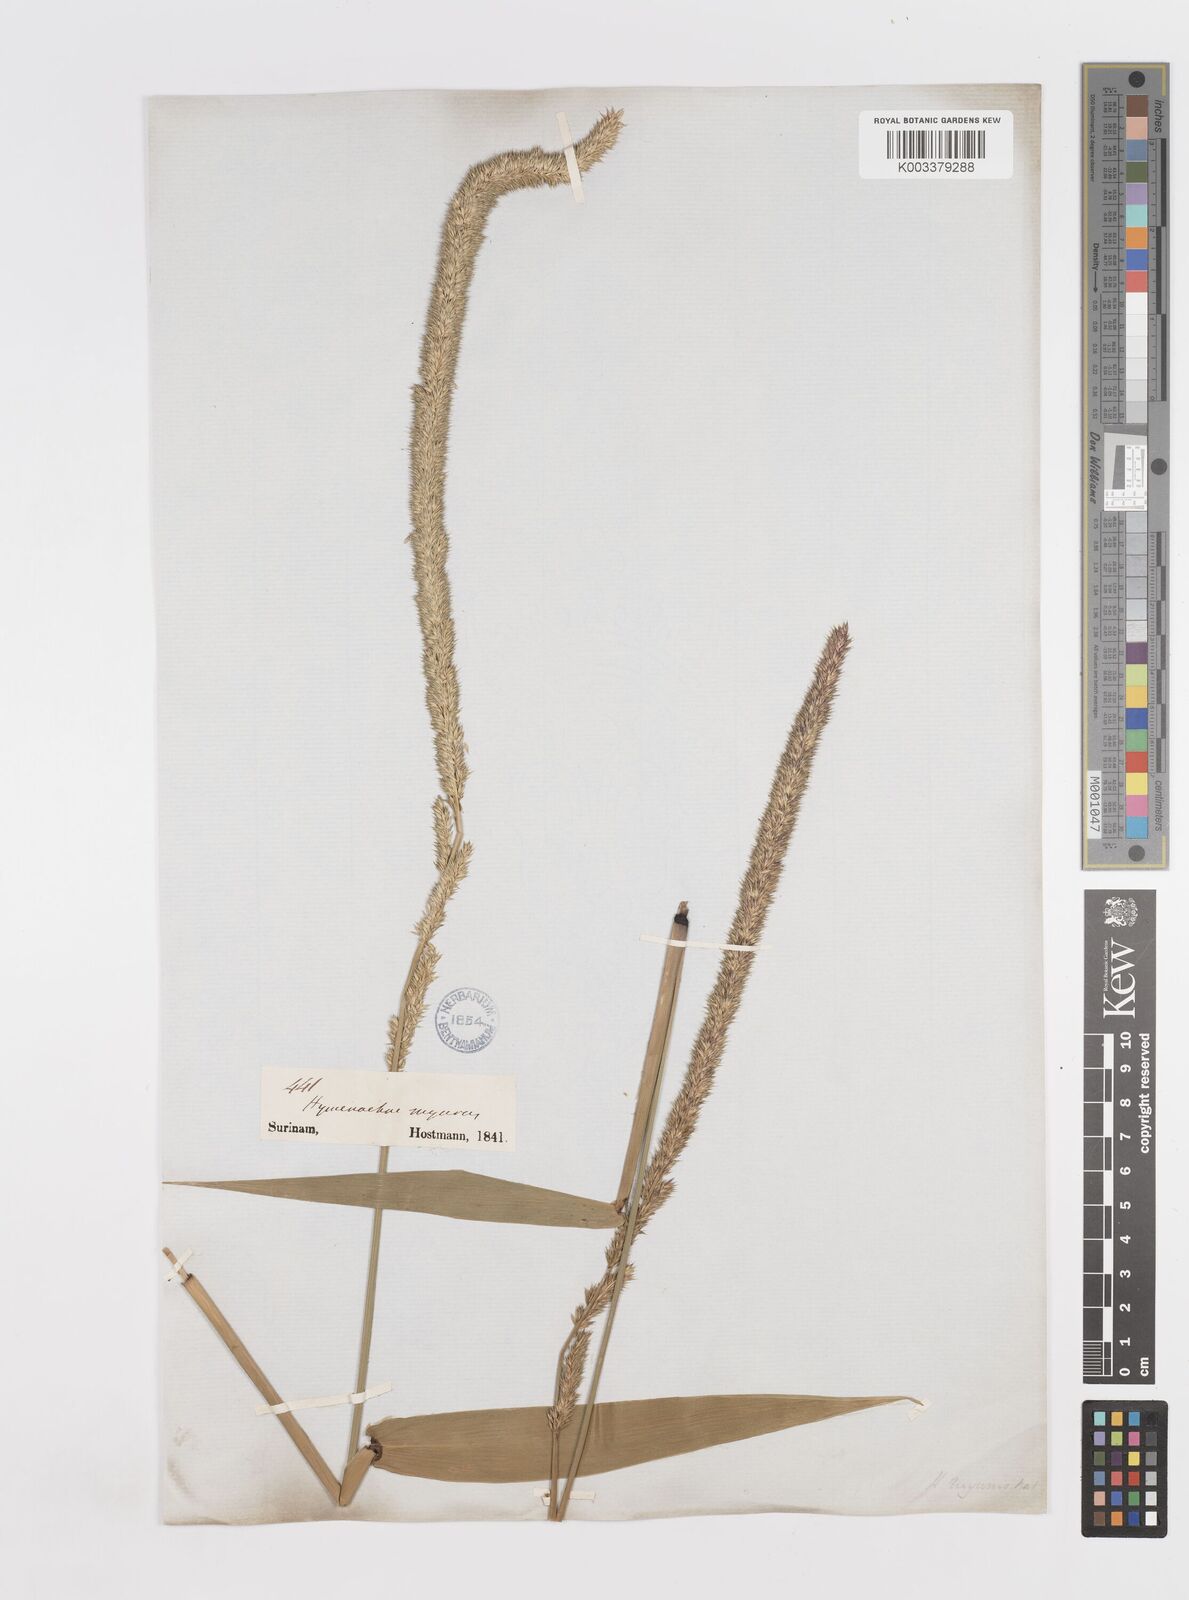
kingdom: Plantae
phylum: Tracheophyta
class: Liliopsida
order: Poales
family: Poaceae
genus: Hymenachne
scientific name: Hymenachne amplexicaulis
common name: Olive hymenachne
